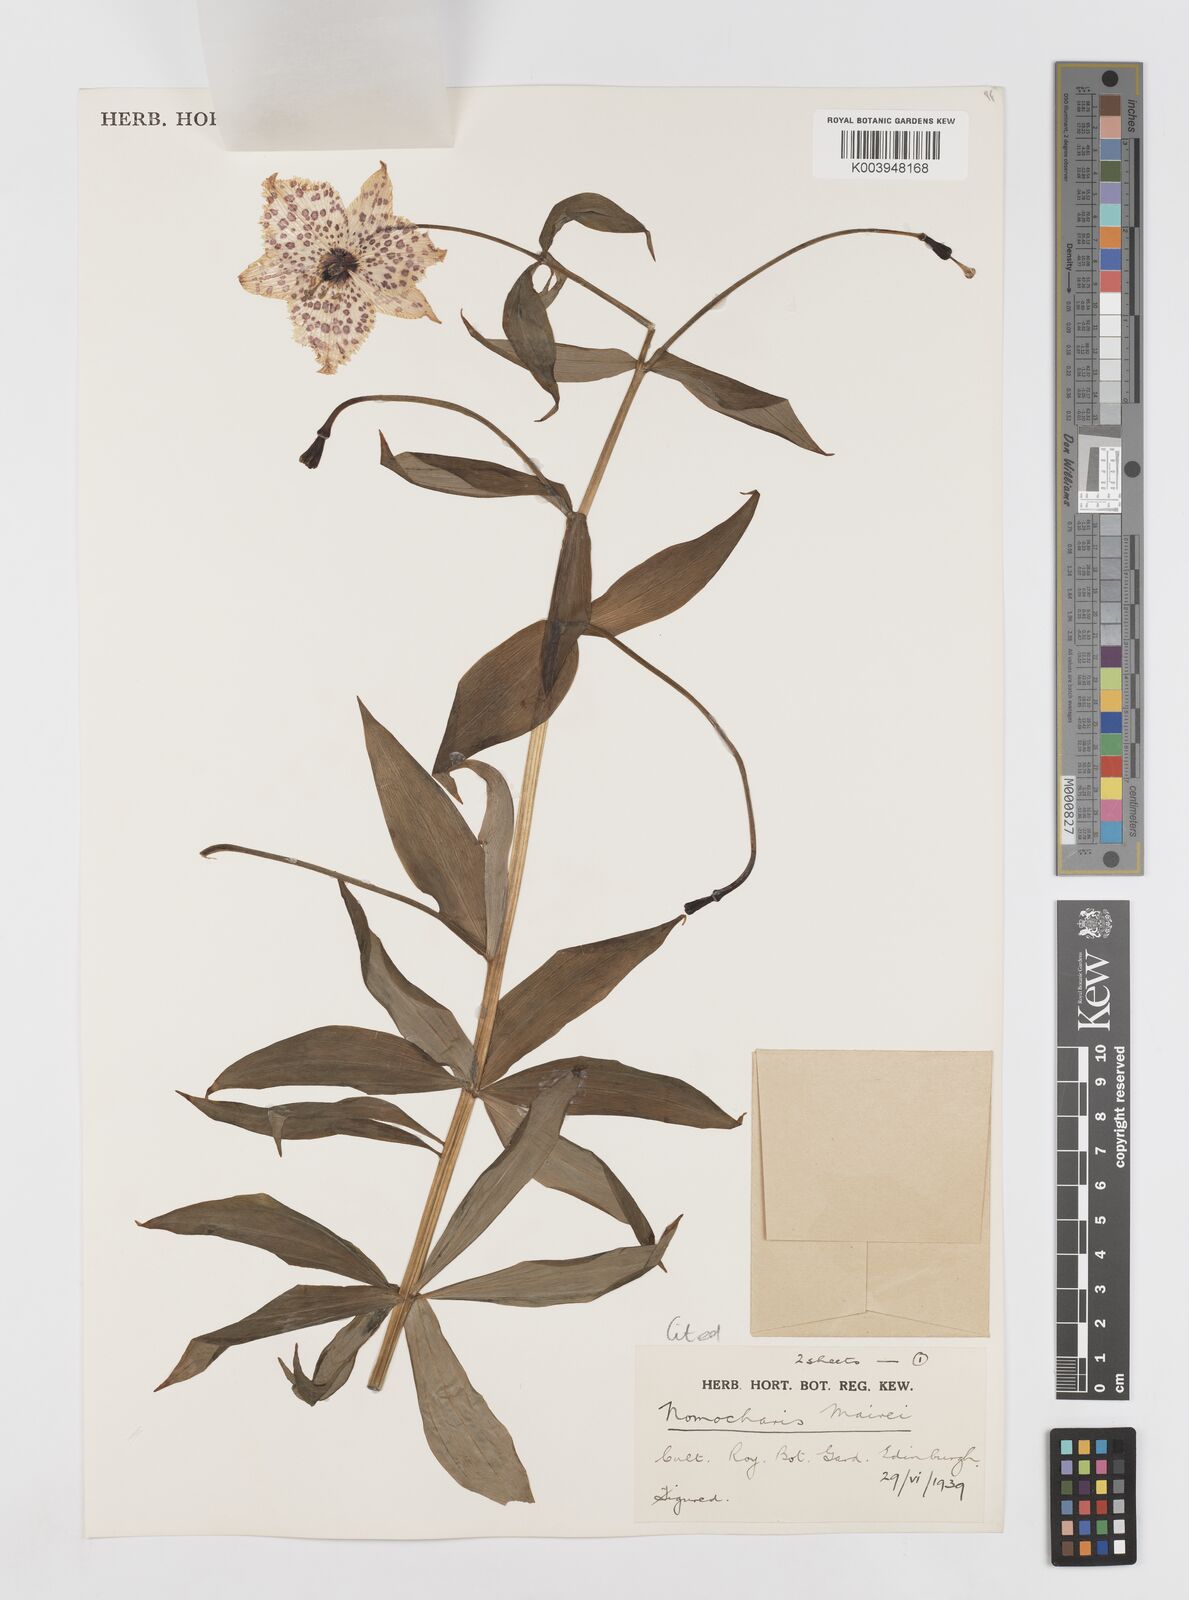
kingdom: Plantae
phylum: Tracheophyta
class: Liliopsida
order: Liliales
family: Liliaceae
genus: Lilium
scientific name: Lilium pardanthinum
